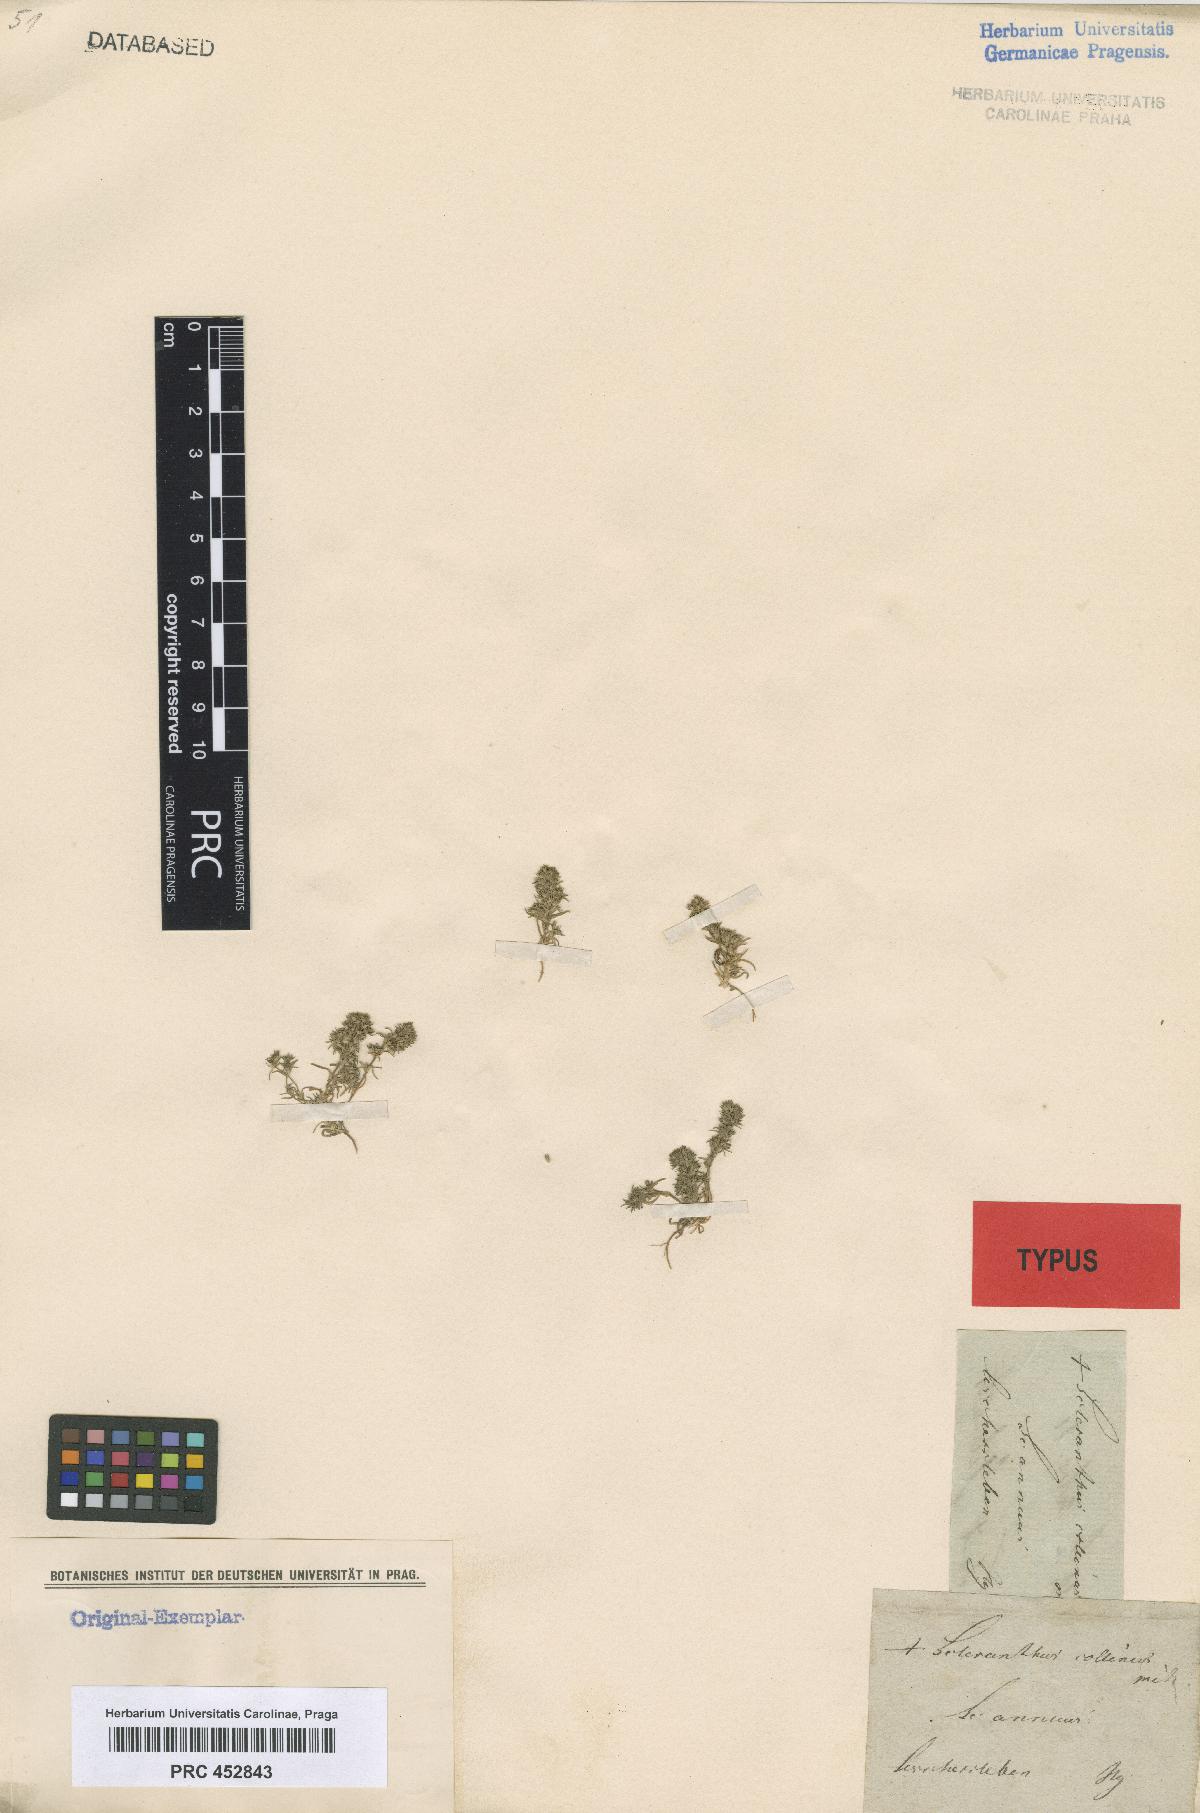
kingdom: Plantae
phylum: Tracheophyta
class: Magnoliopsida
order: Caryophyllales
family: Caryophyllaceae
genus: Scleranthus
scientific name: Scleranthus verticillatus
